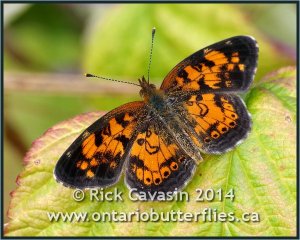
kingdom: Animalia
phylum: Arthropoda
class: Insecta
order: Lepidoptera
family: Nymphalidae
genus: Phyciodes
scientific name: Phyciodes
